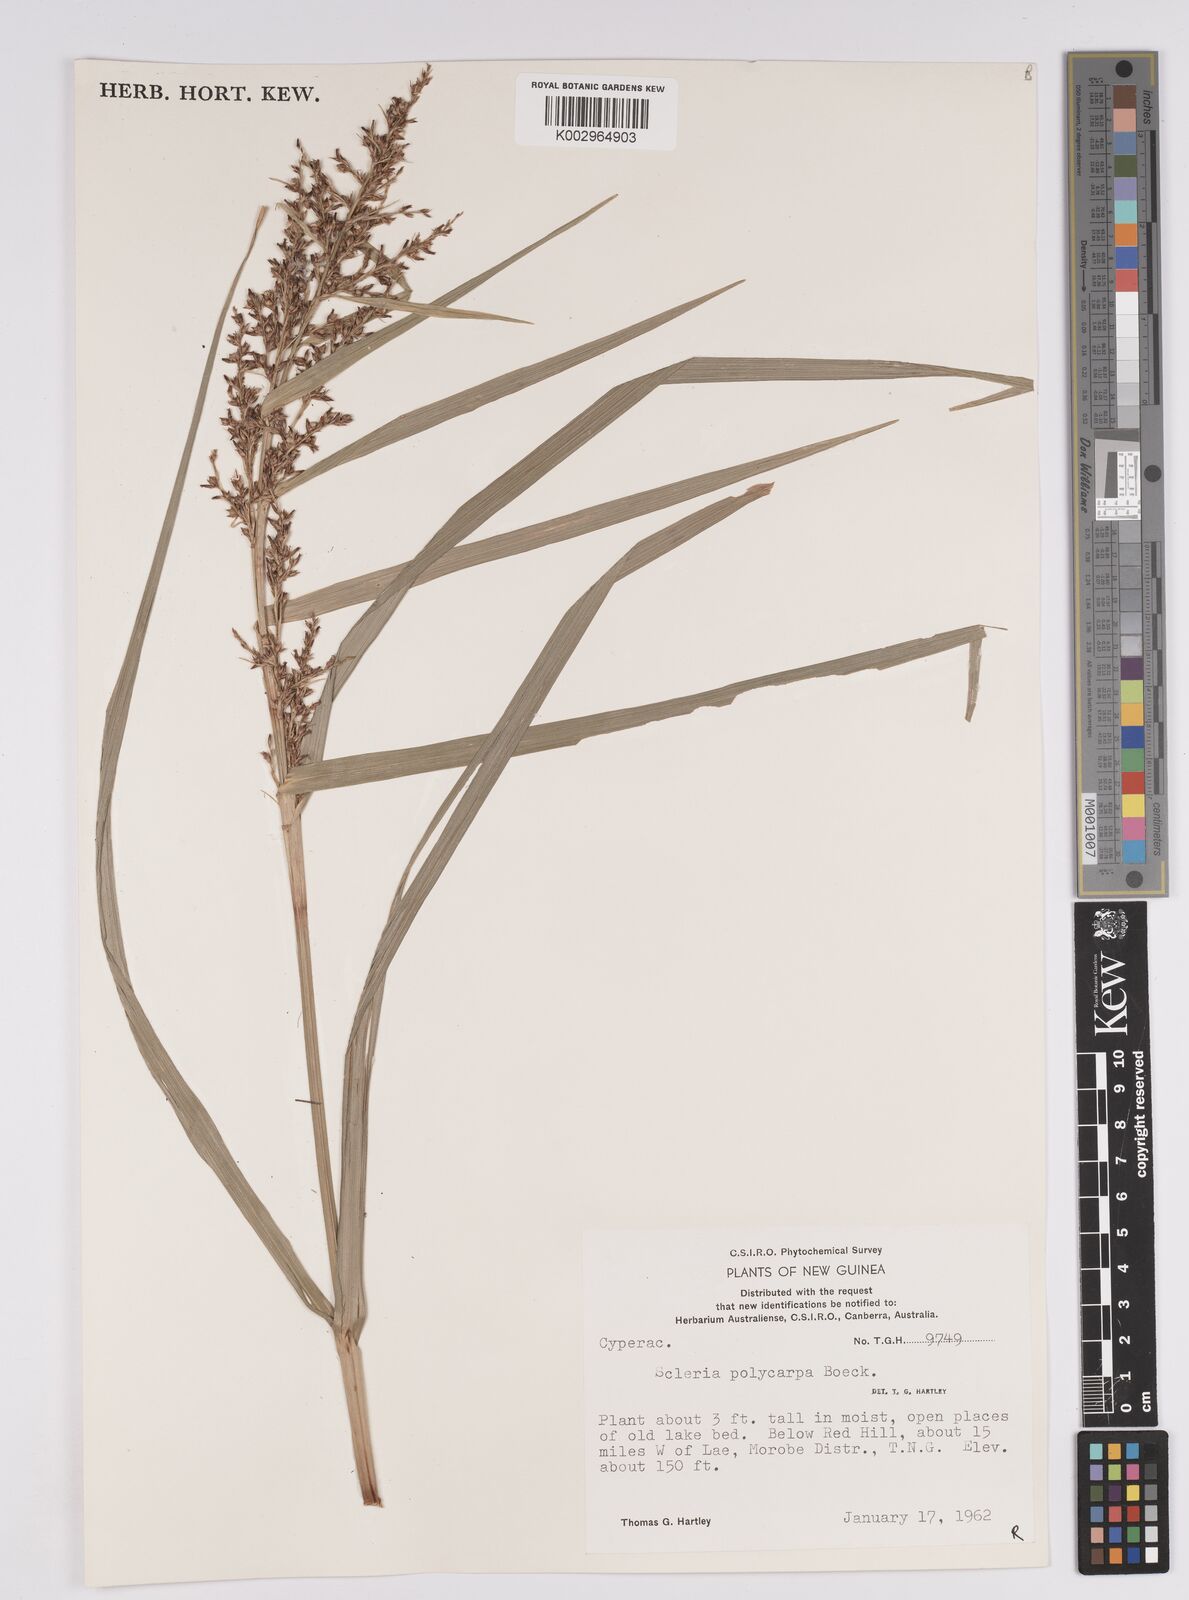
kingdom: Plantae
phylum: Tracheophyta
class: Liliopsida
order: Poales
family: Cyperaceae
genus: Scleria
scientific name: Scleria polycarpa
